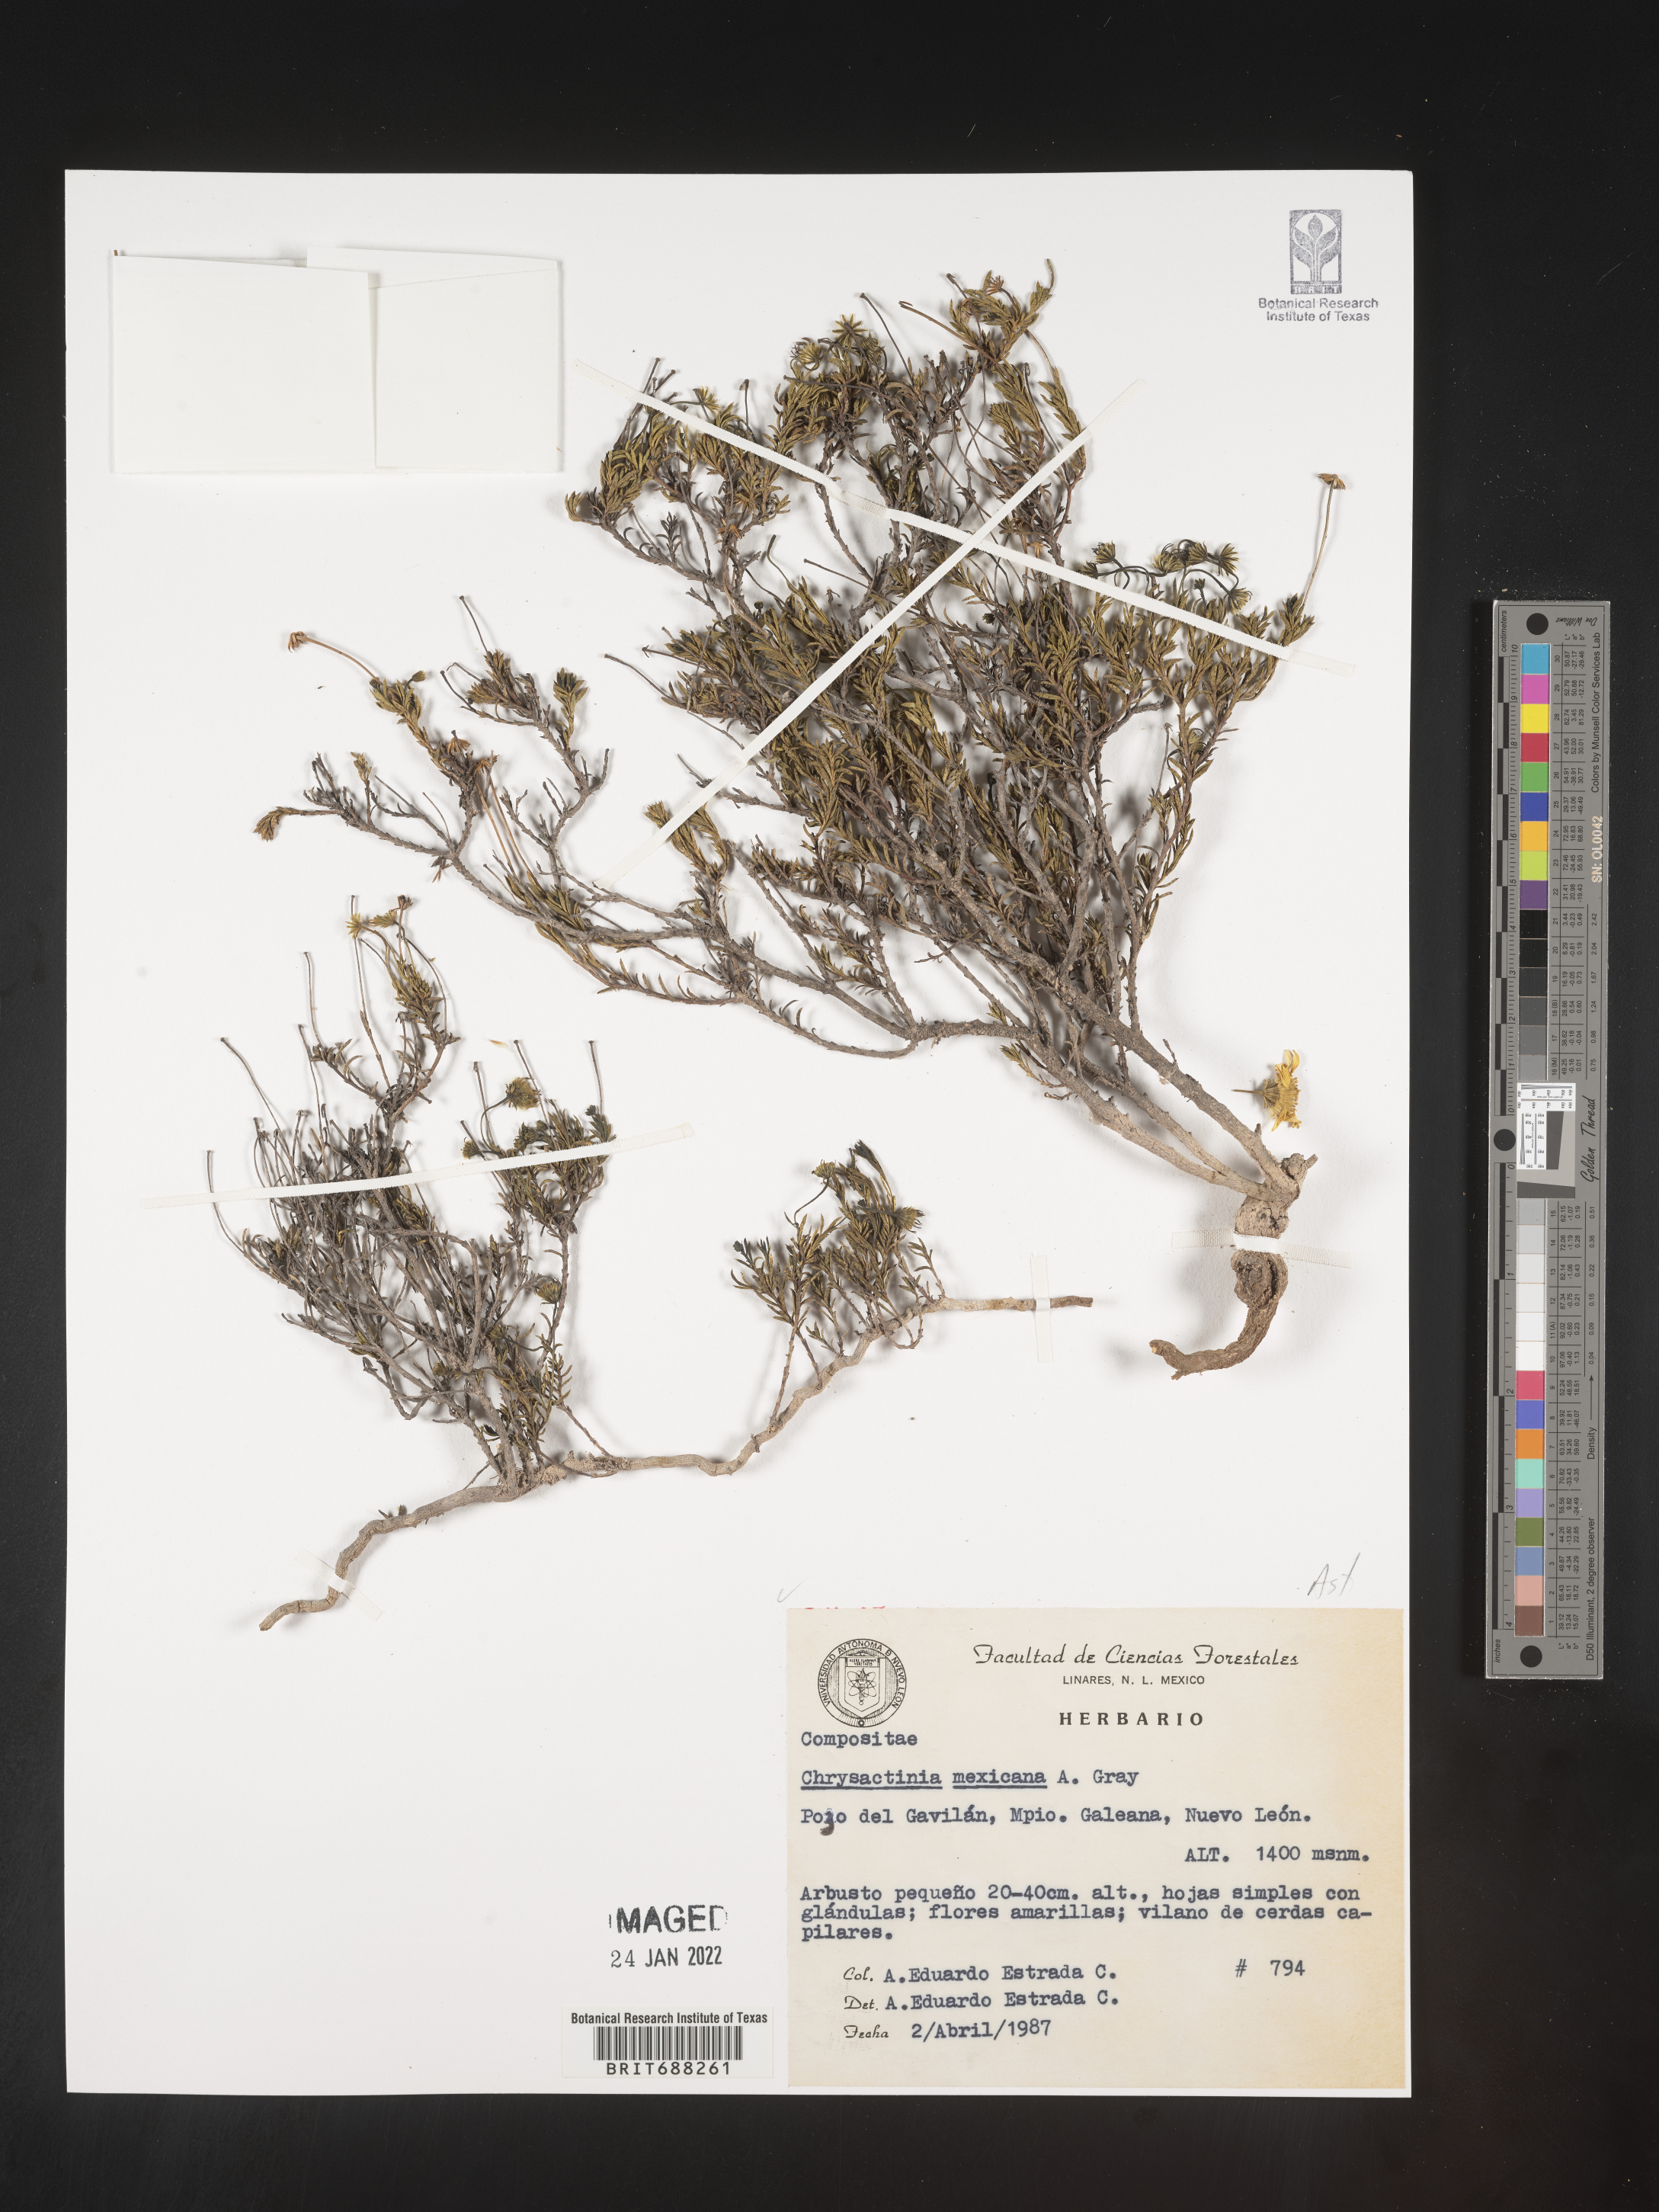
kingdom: Plantae
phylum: Tracheophyta
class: Magnoliopsida
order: Asterales
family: Asteraceae
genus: Chrysactinia
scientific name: Chrysactinia
